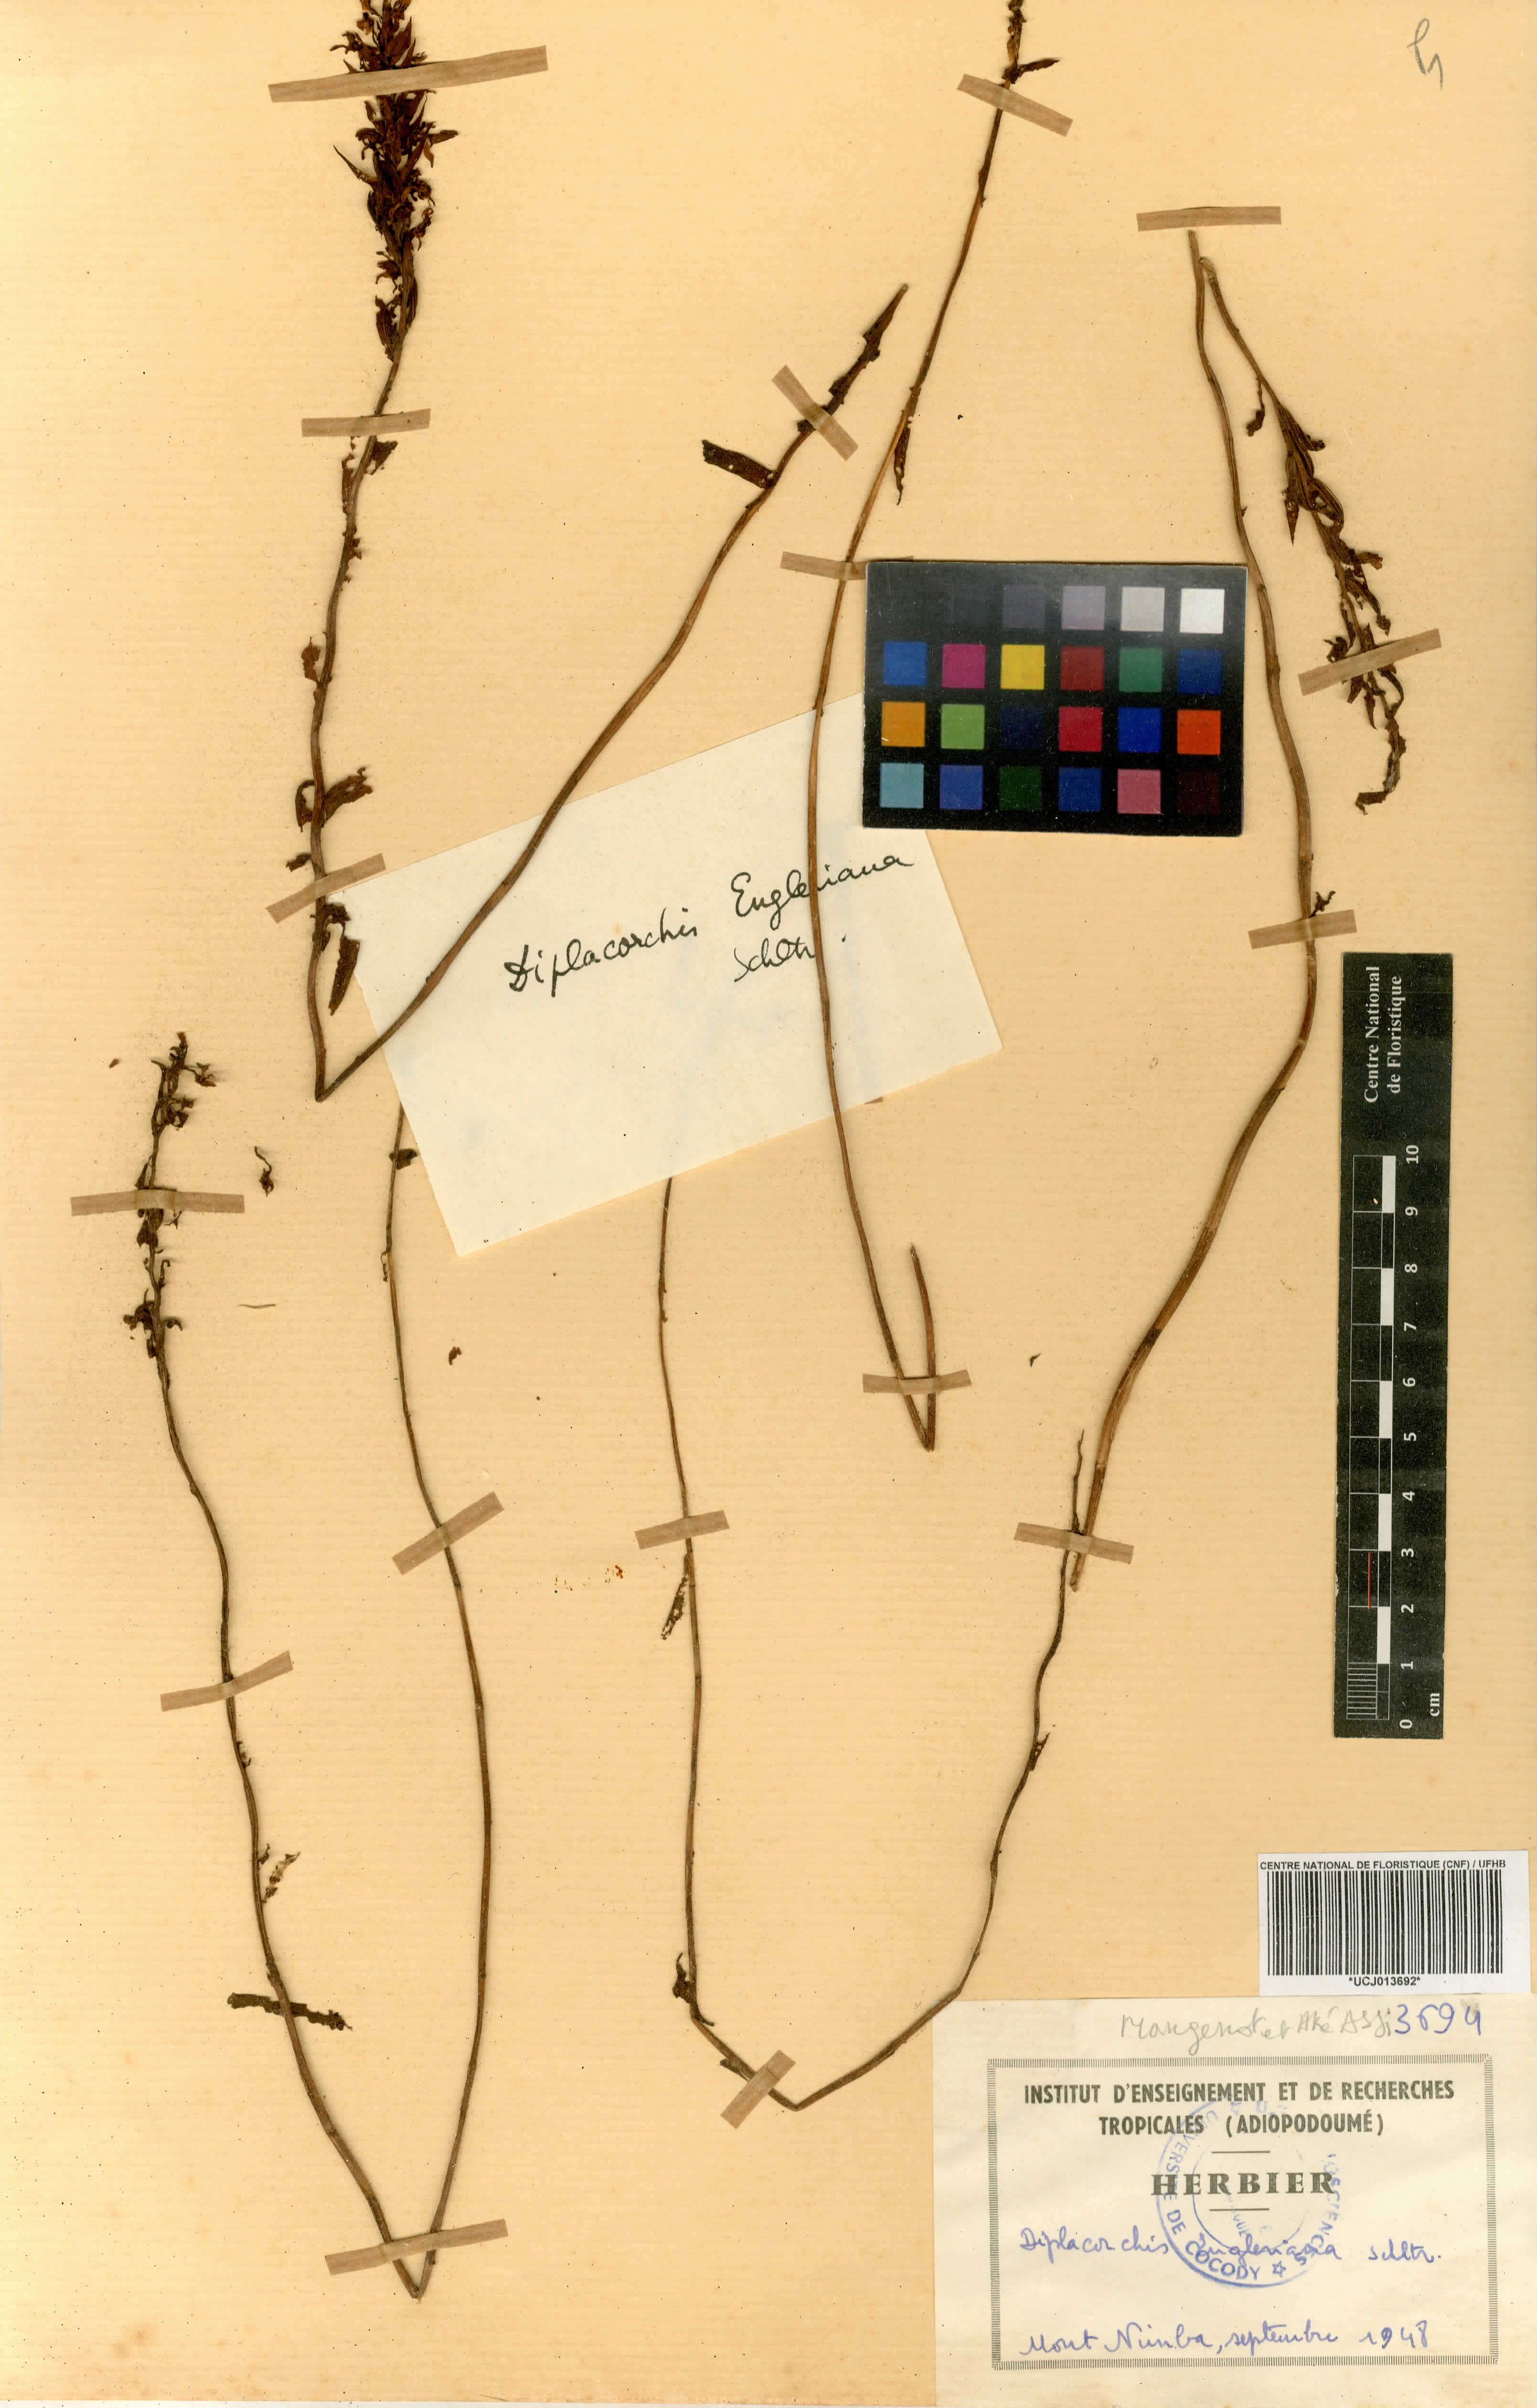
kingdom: Plantae
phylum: Tracheophyta
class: Liliopsida
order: Asparagales
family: Orchidaceae
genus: Brachycorythis
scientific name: Brachycorythis tenuior
